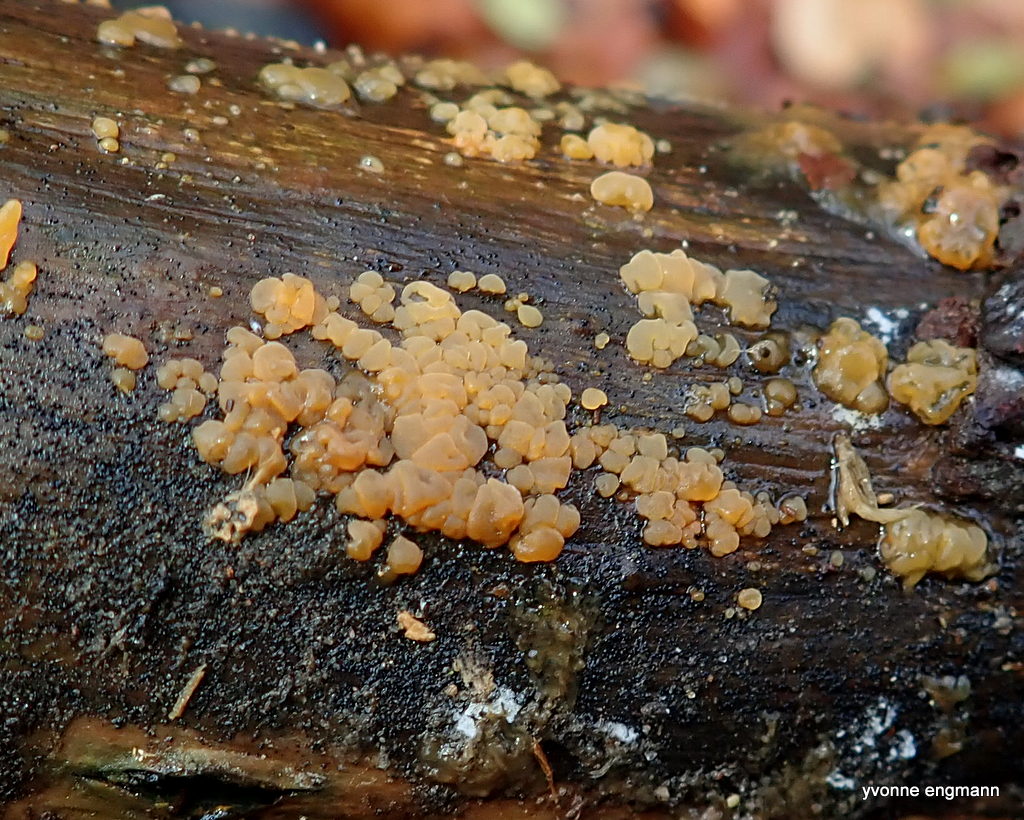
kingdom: Fungi
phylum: Basidiomycota
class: Dacrymycetes
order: Dacrymycetales
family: Dacrymycetaceae
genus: Dacrymyces
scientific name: Dacrymyces
